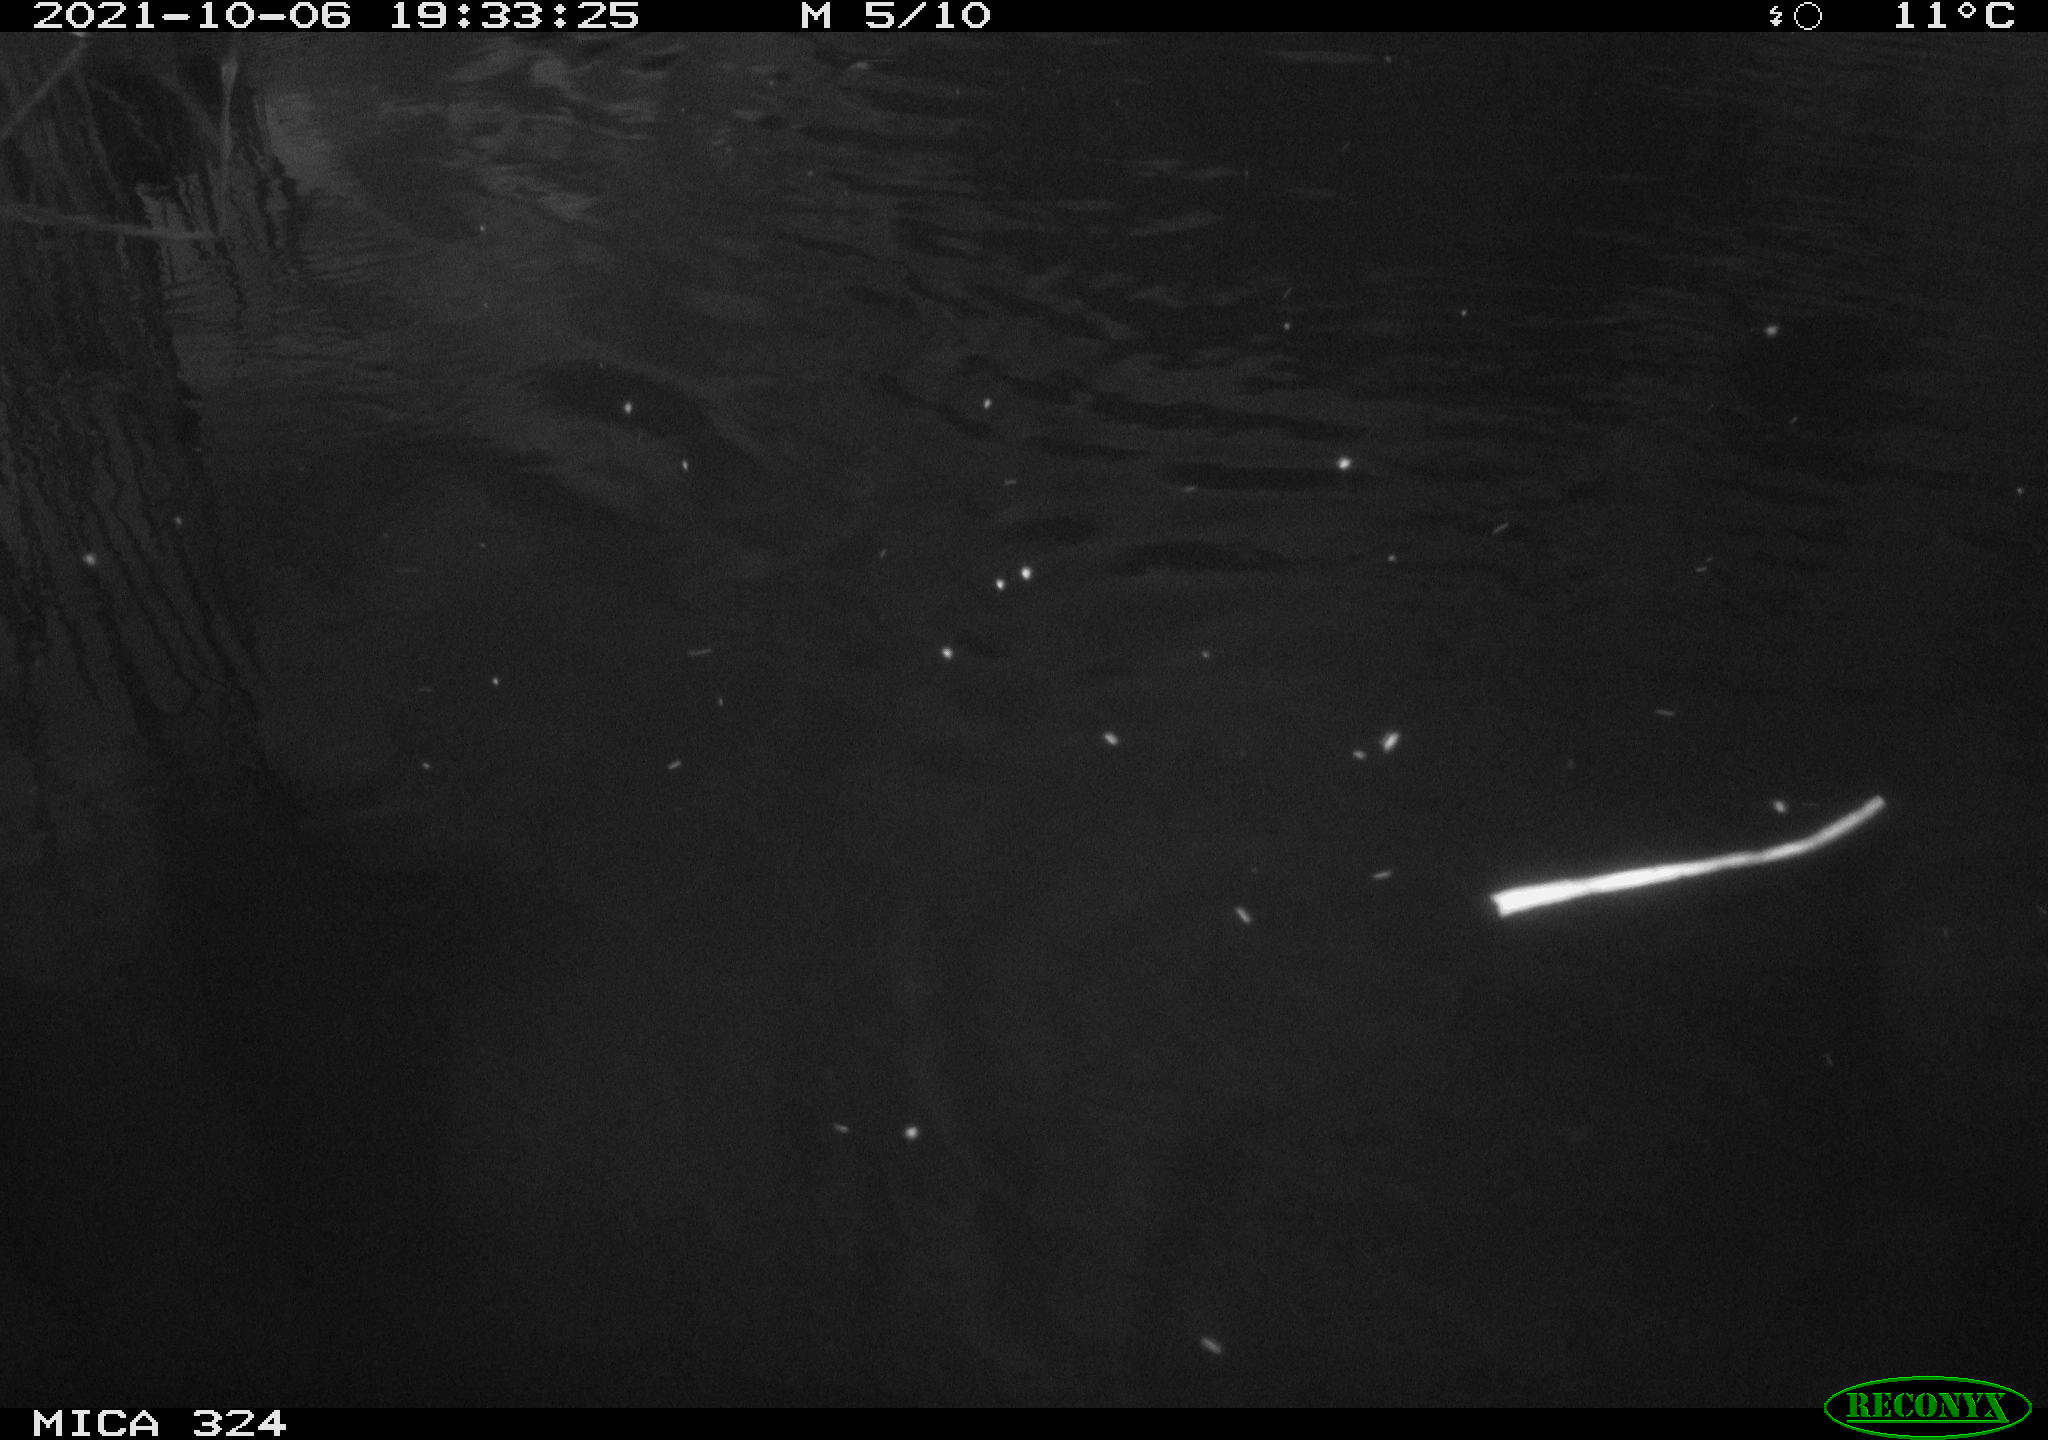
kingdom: Animalia
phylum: Chordata
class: Mammalia
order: Rodentia
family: Cricetidae
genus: Ondatra
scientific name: Ondatra zibethicus
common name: Muskrat
